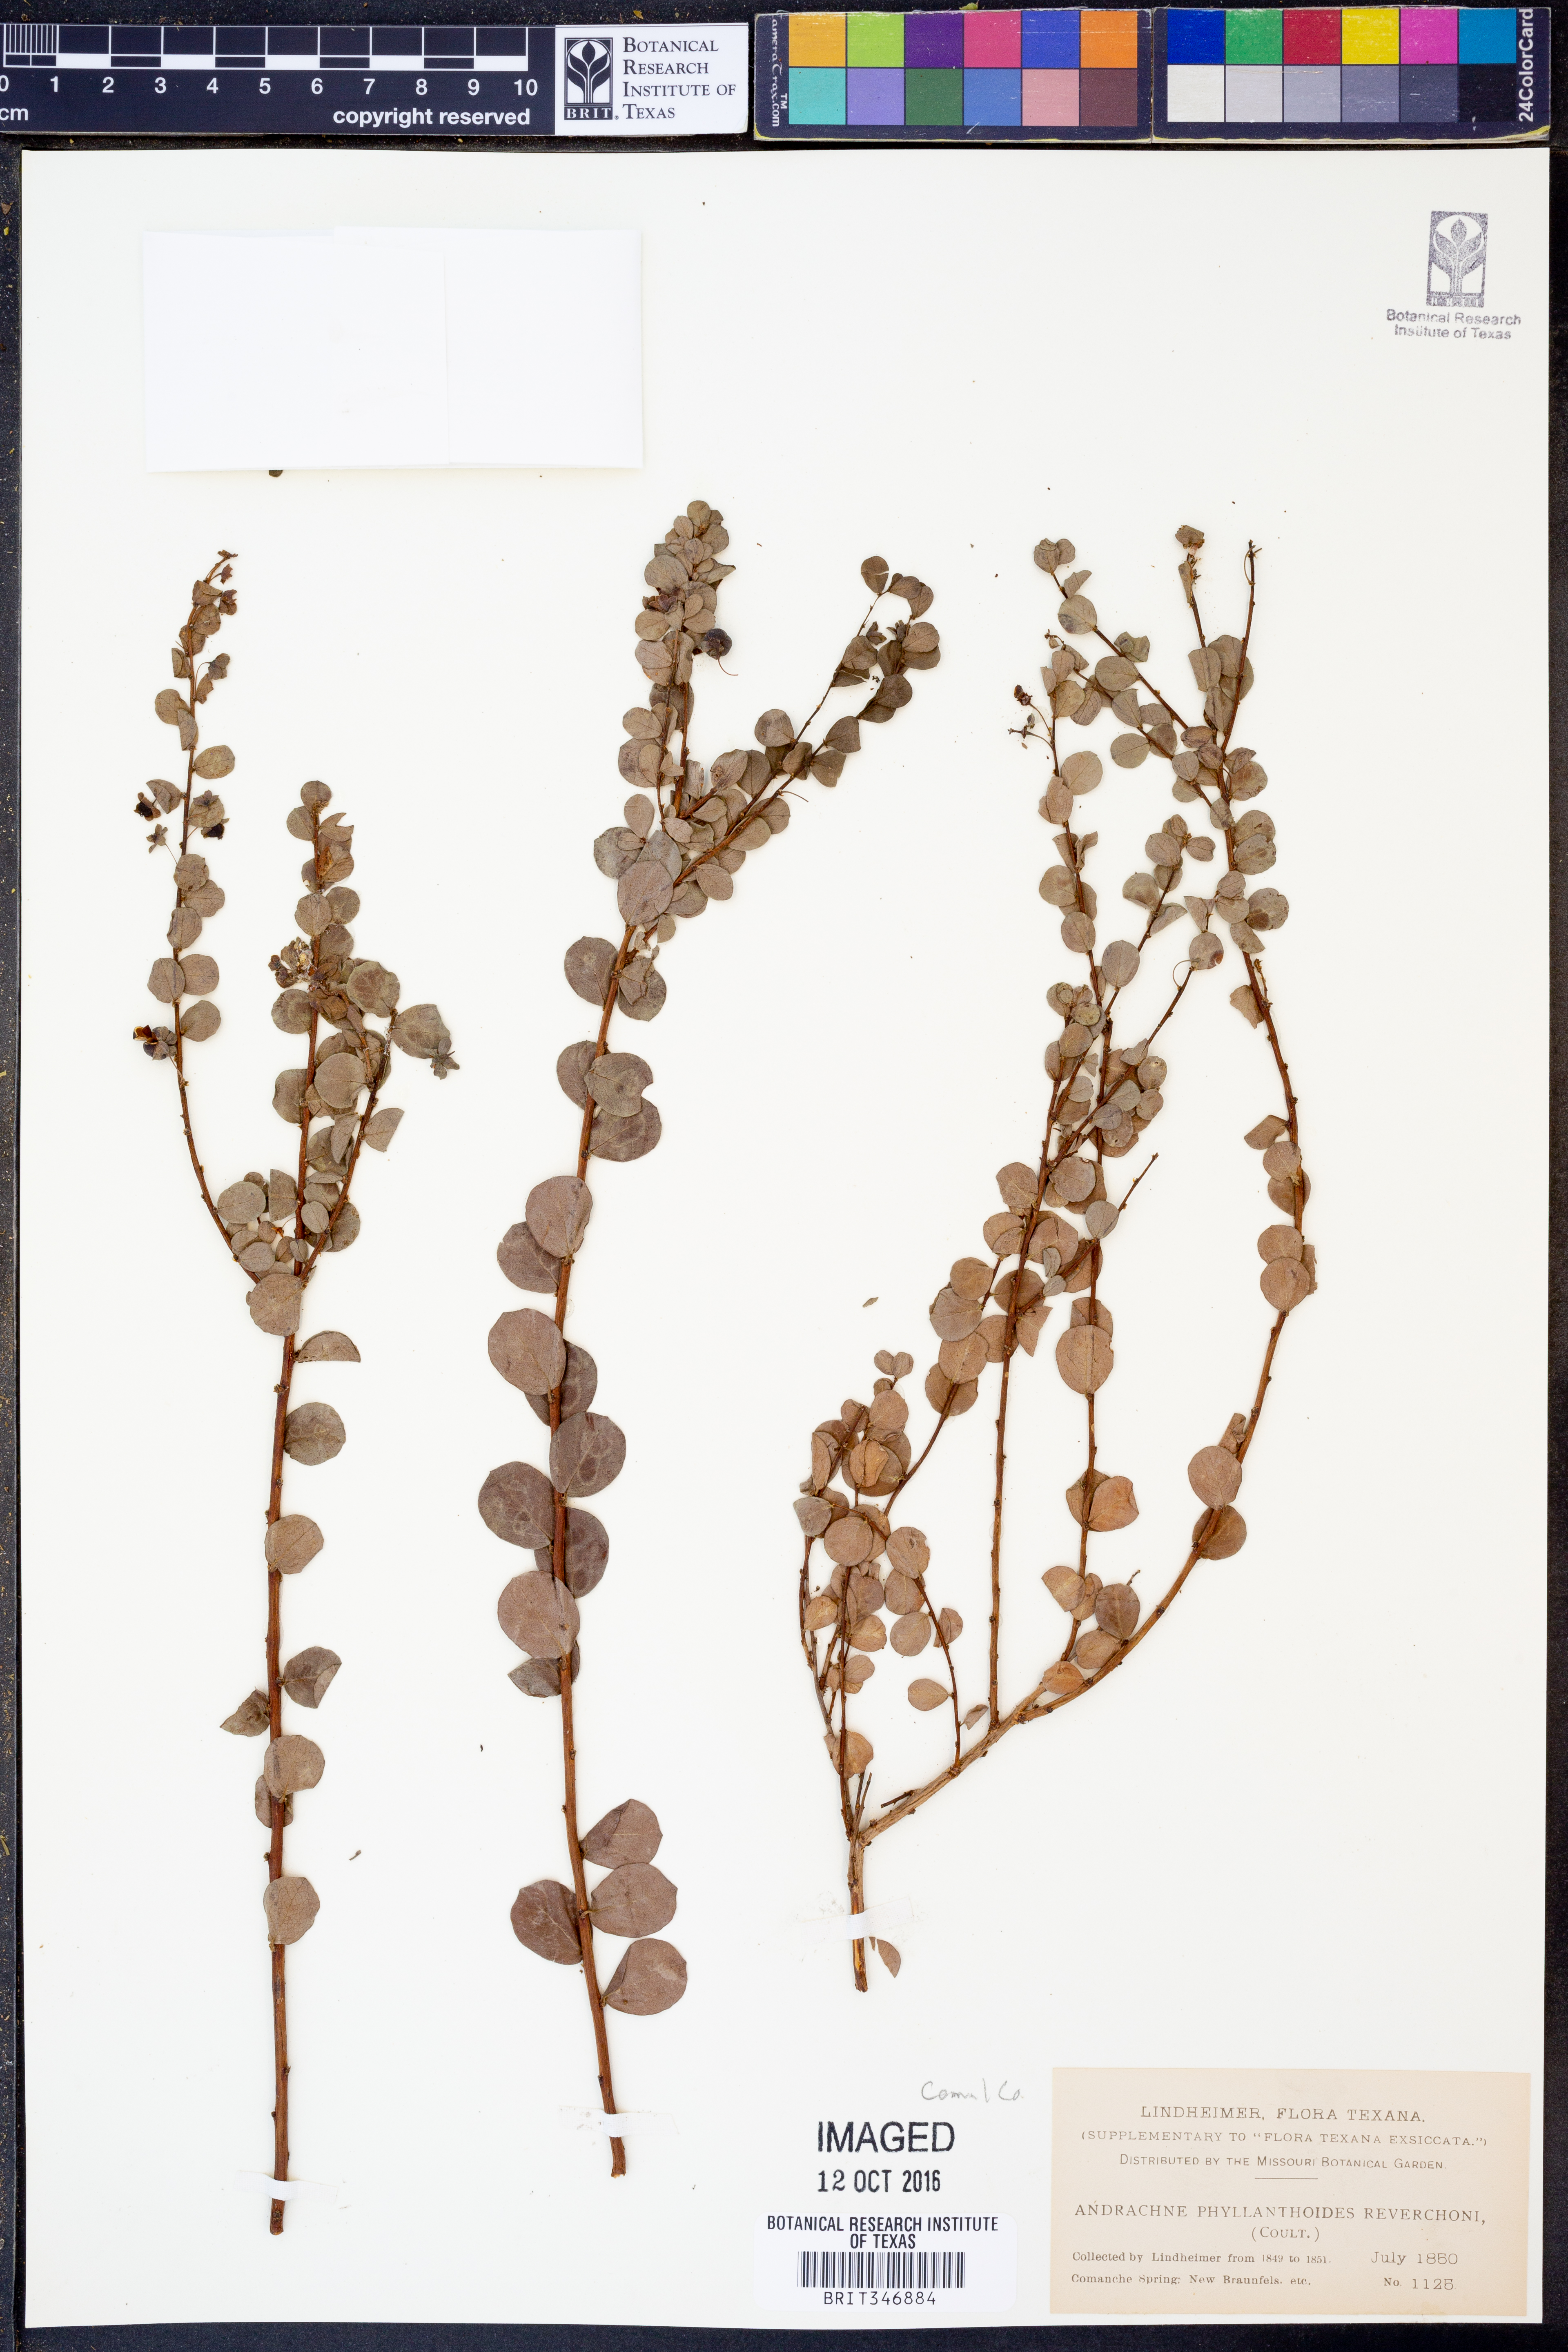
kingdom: Plantae
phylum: Tracheophyta
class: Magnoliopsida
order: Malpighiales
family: Phyllanthaceae
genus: Phyllanthopsis
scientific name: Phyllanthopsis phyllanthoides
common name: Missouri maidenbush
